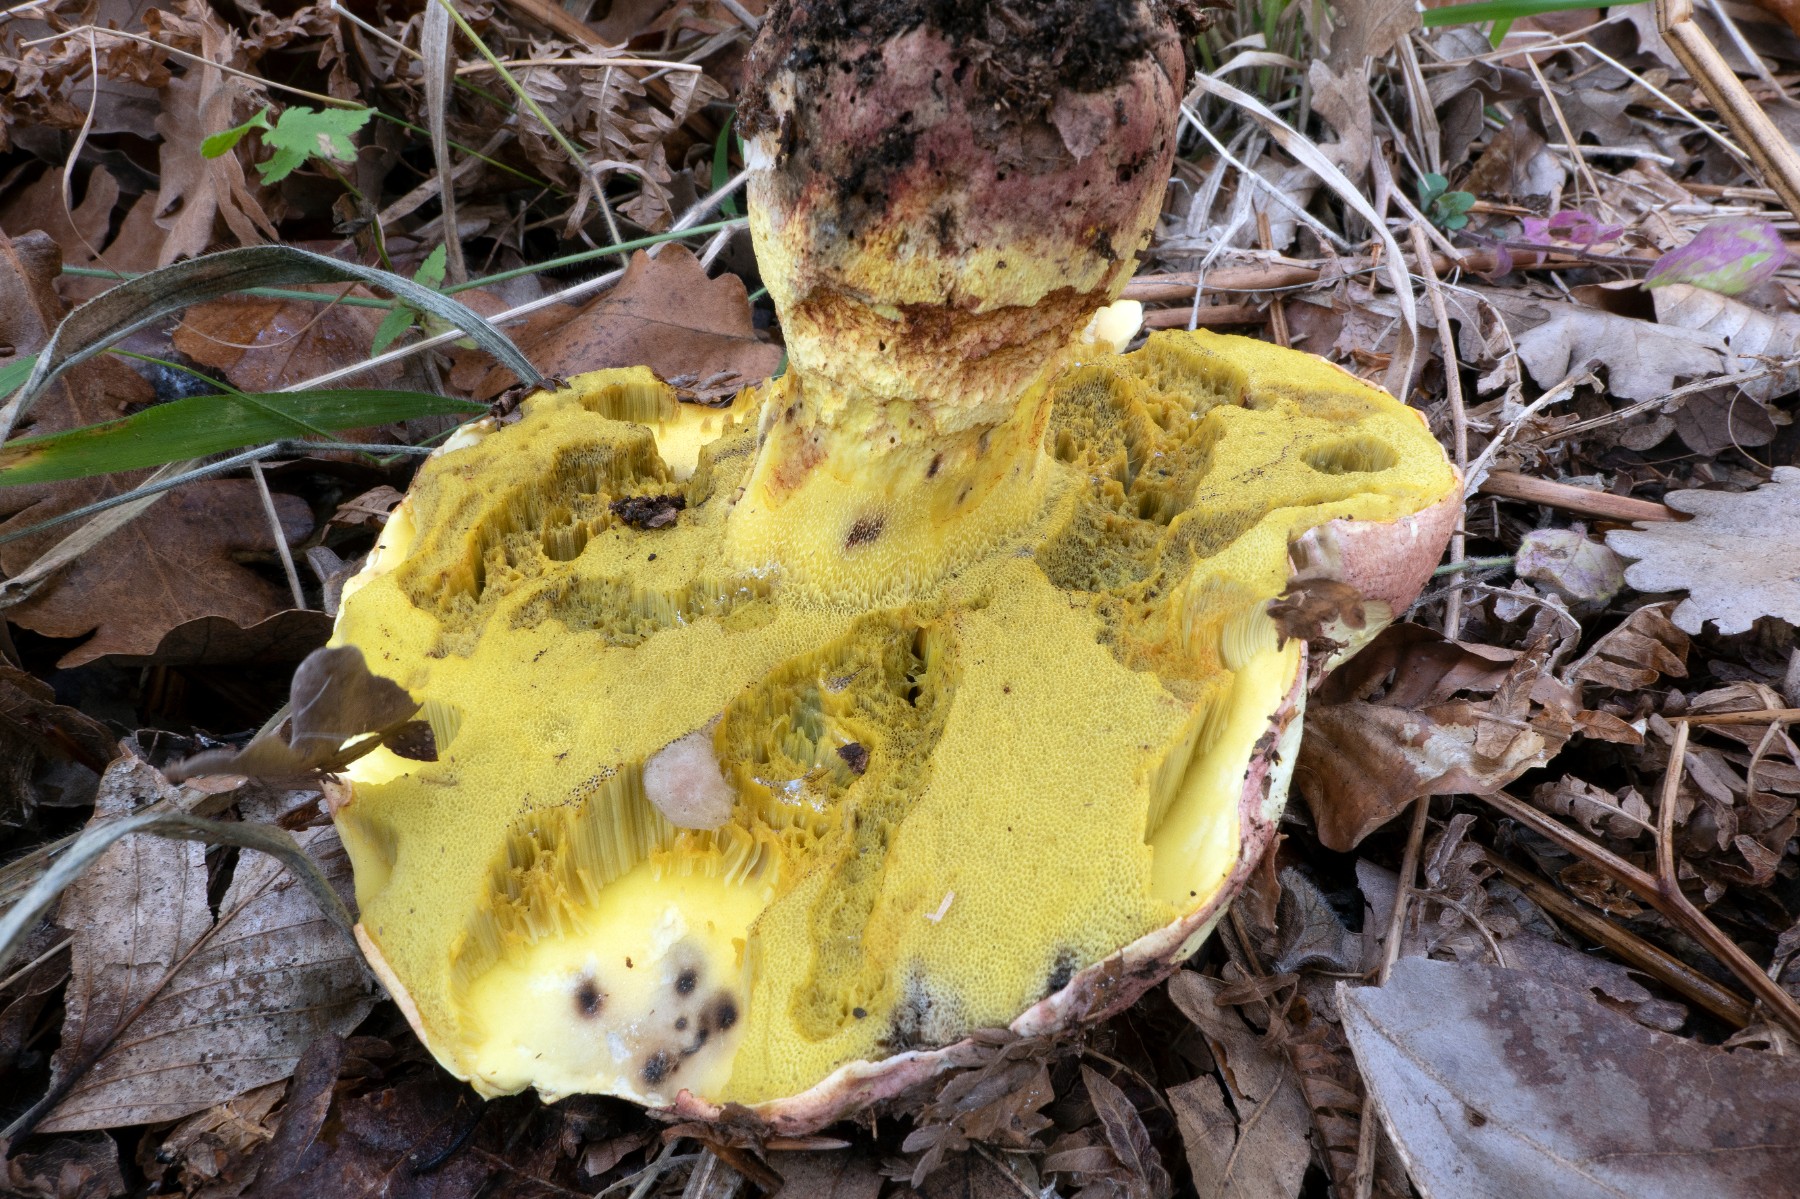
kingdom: Fungi
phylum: Basidiomycota
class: Agaricomycetes
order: Boletales
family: Boletaceae
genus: Butyriboletus
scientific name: Butyriboletus regius
